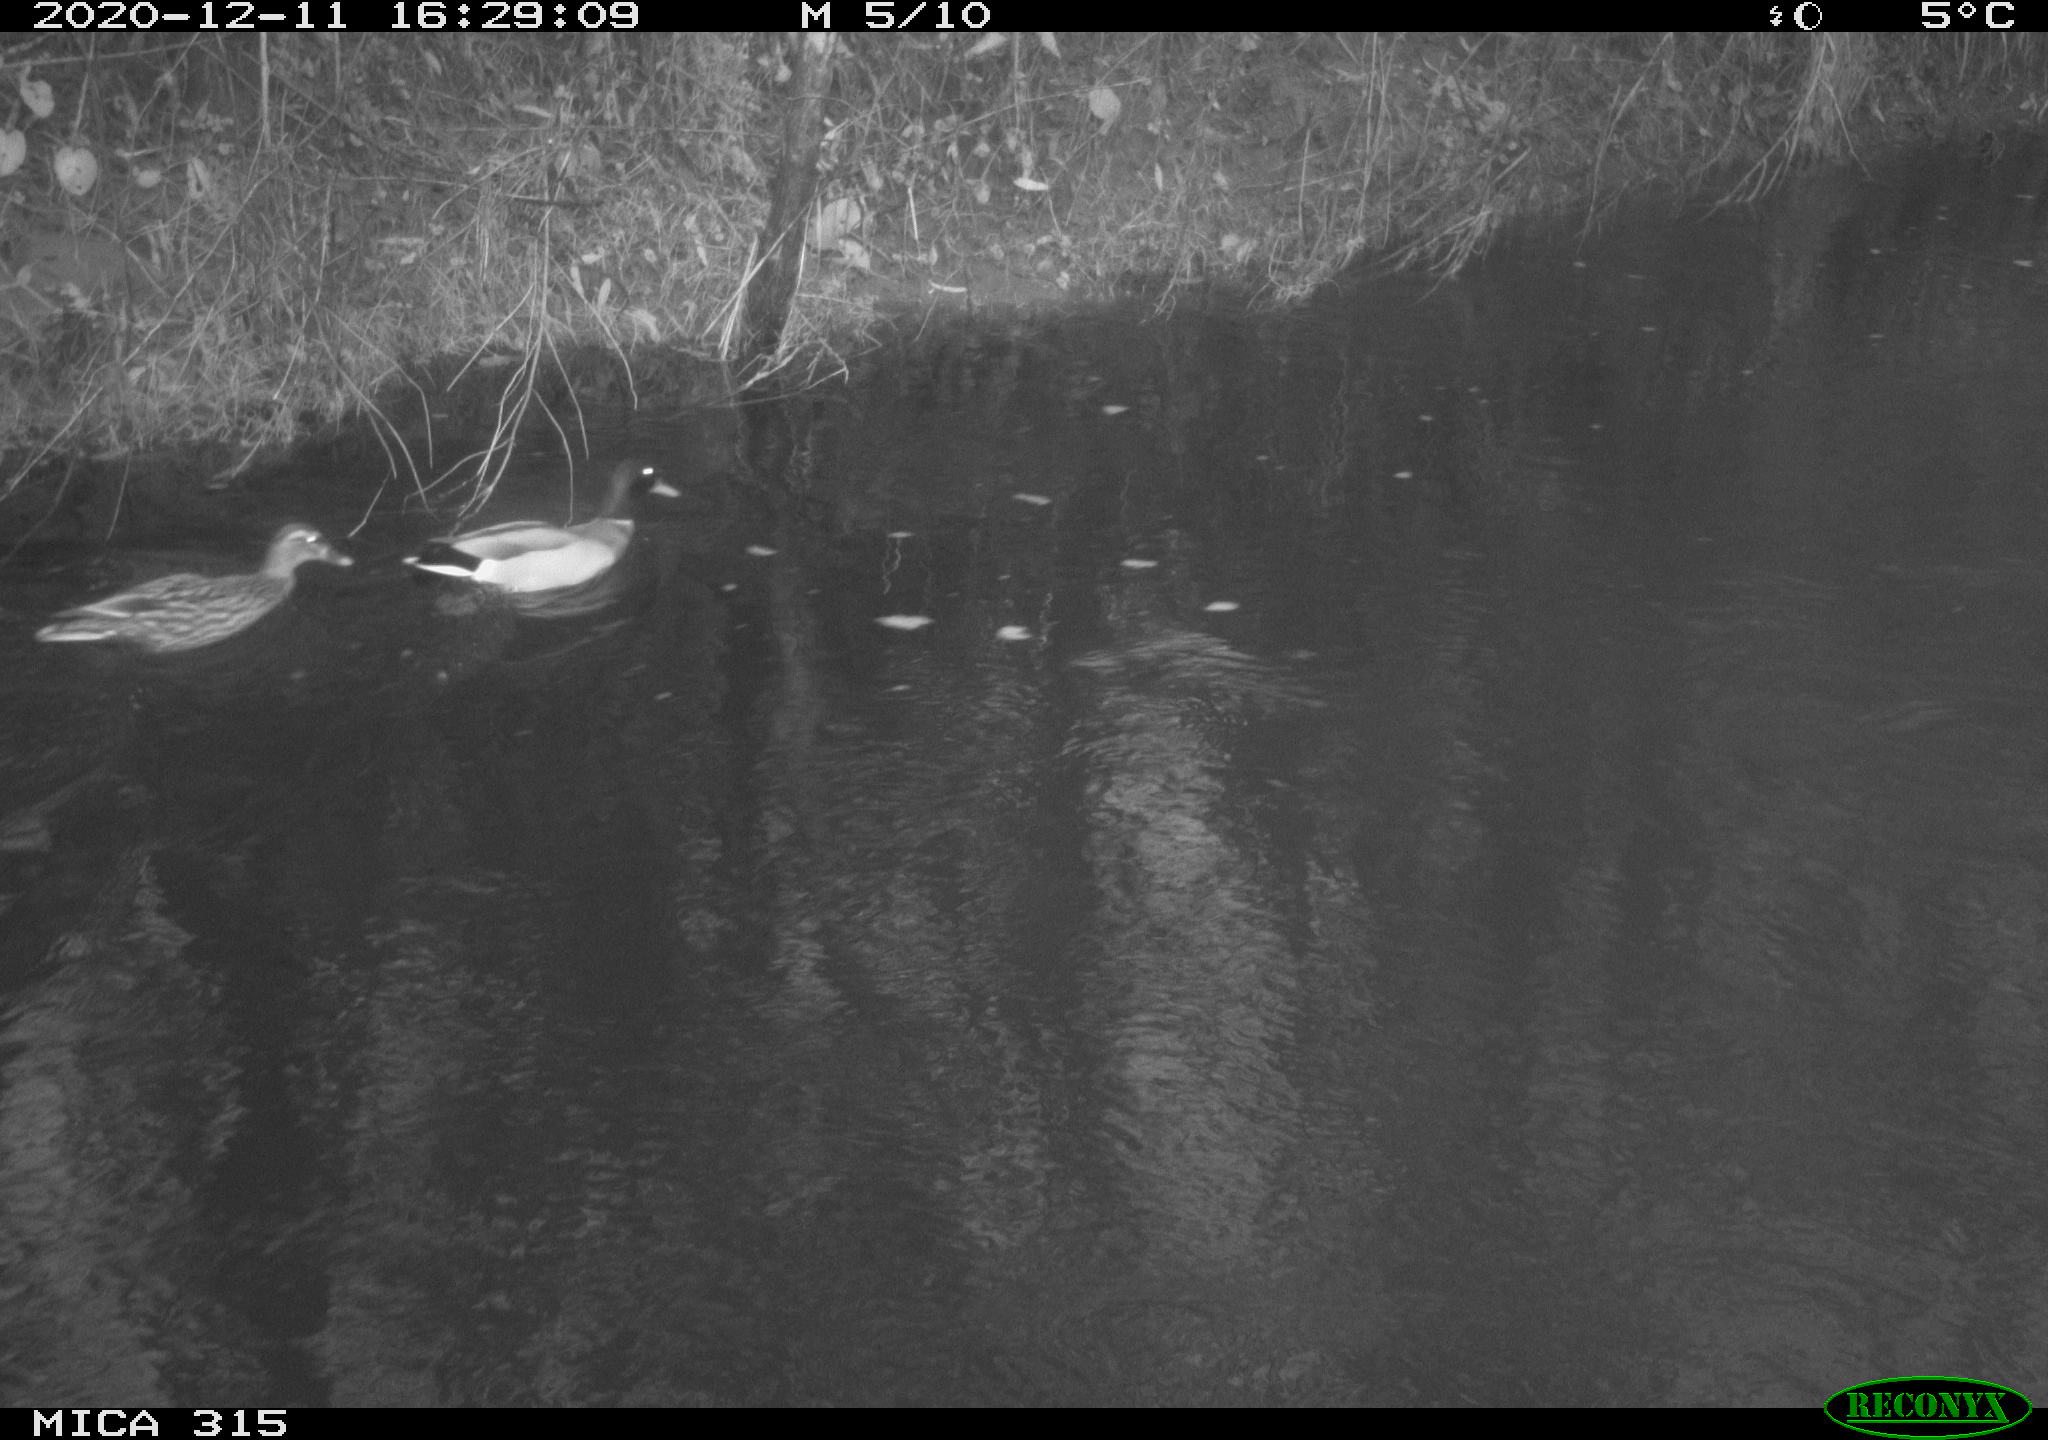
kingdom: Animalia
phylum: Chordata
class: Aves
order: Anseriformes
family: Anatidae
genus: Anas
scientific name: Anas platyrhynchos
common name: Mallard
